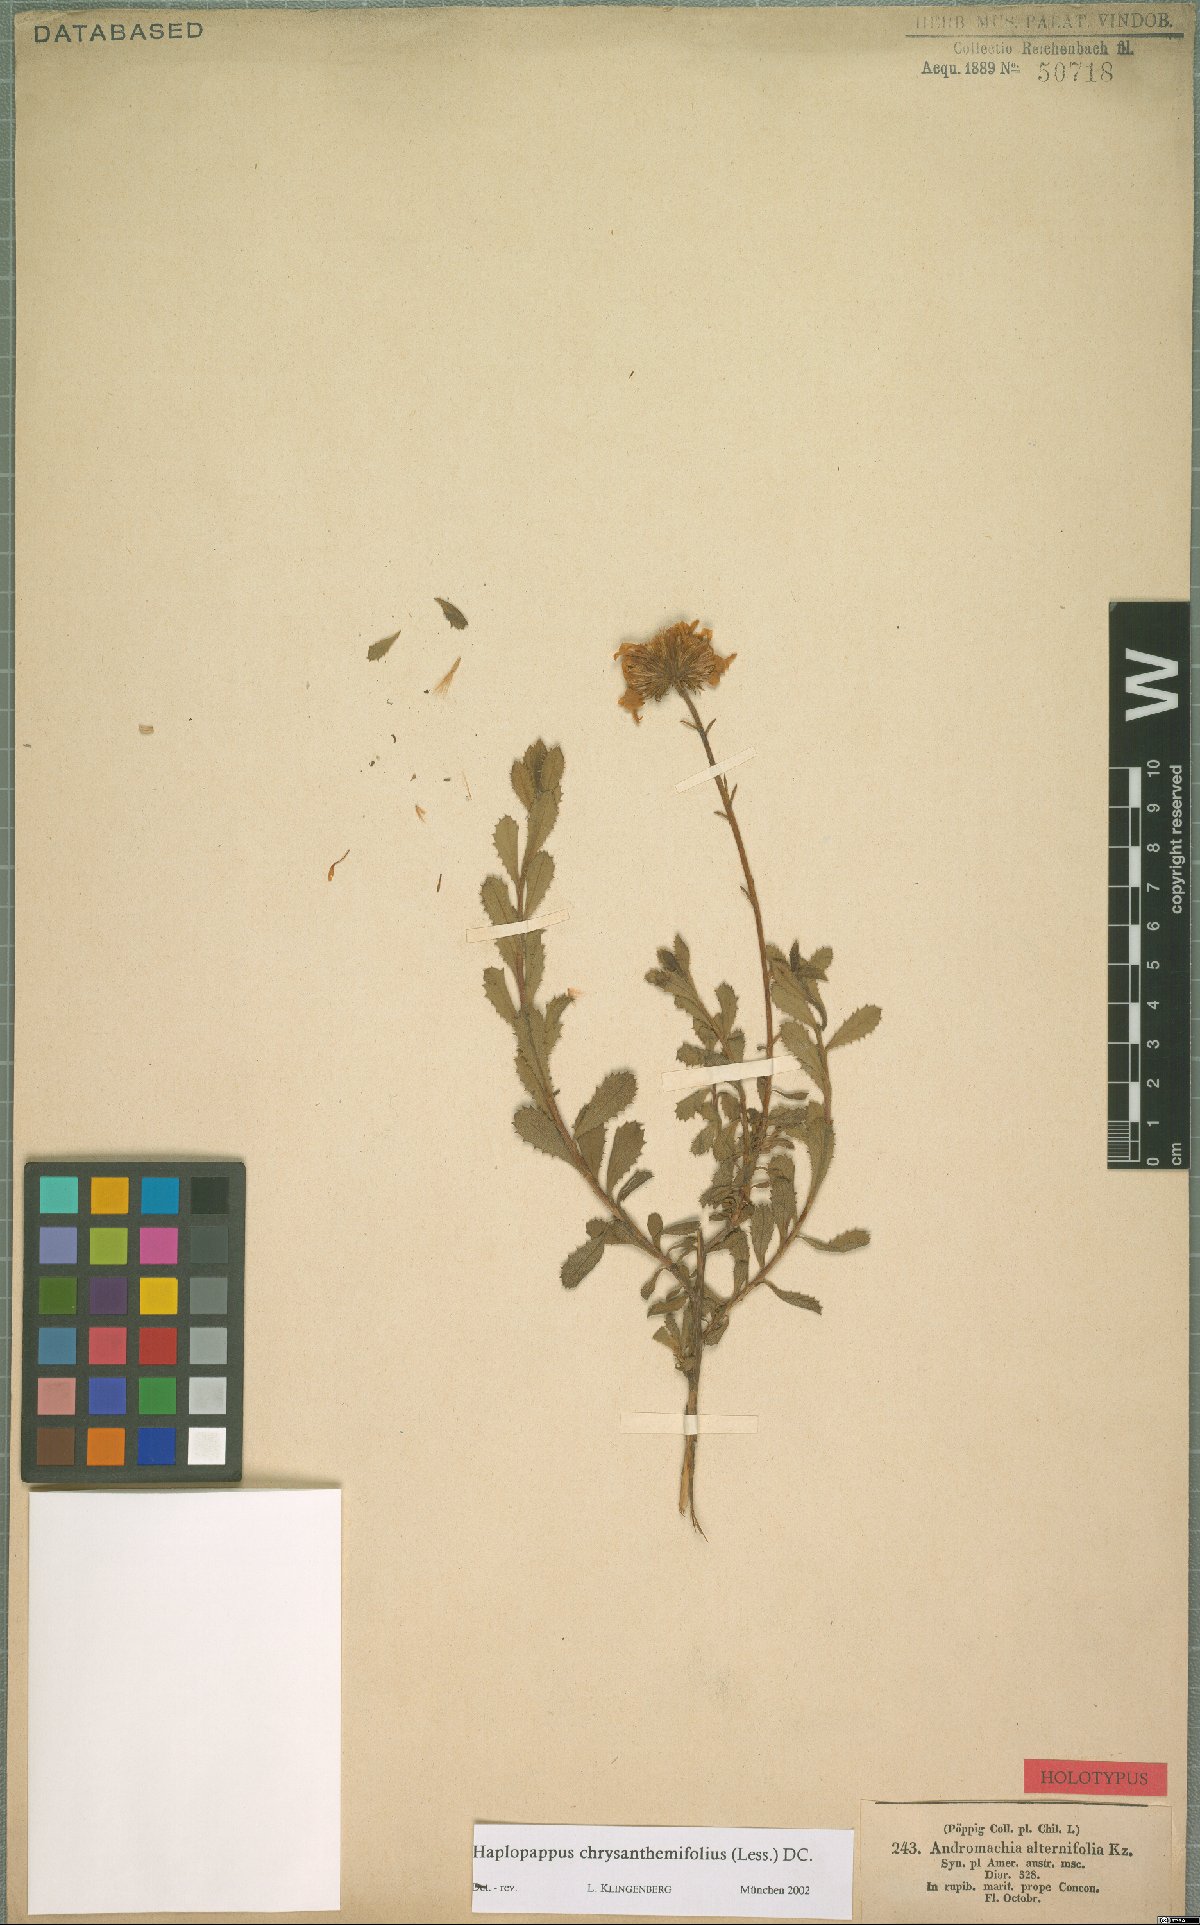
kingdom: Plantae
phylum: Tracheophyta
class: Magnoliopsida
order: Asterales
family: Asteraceae
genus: Haplopappus
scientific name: Haplopappus chrysanthemifolius
